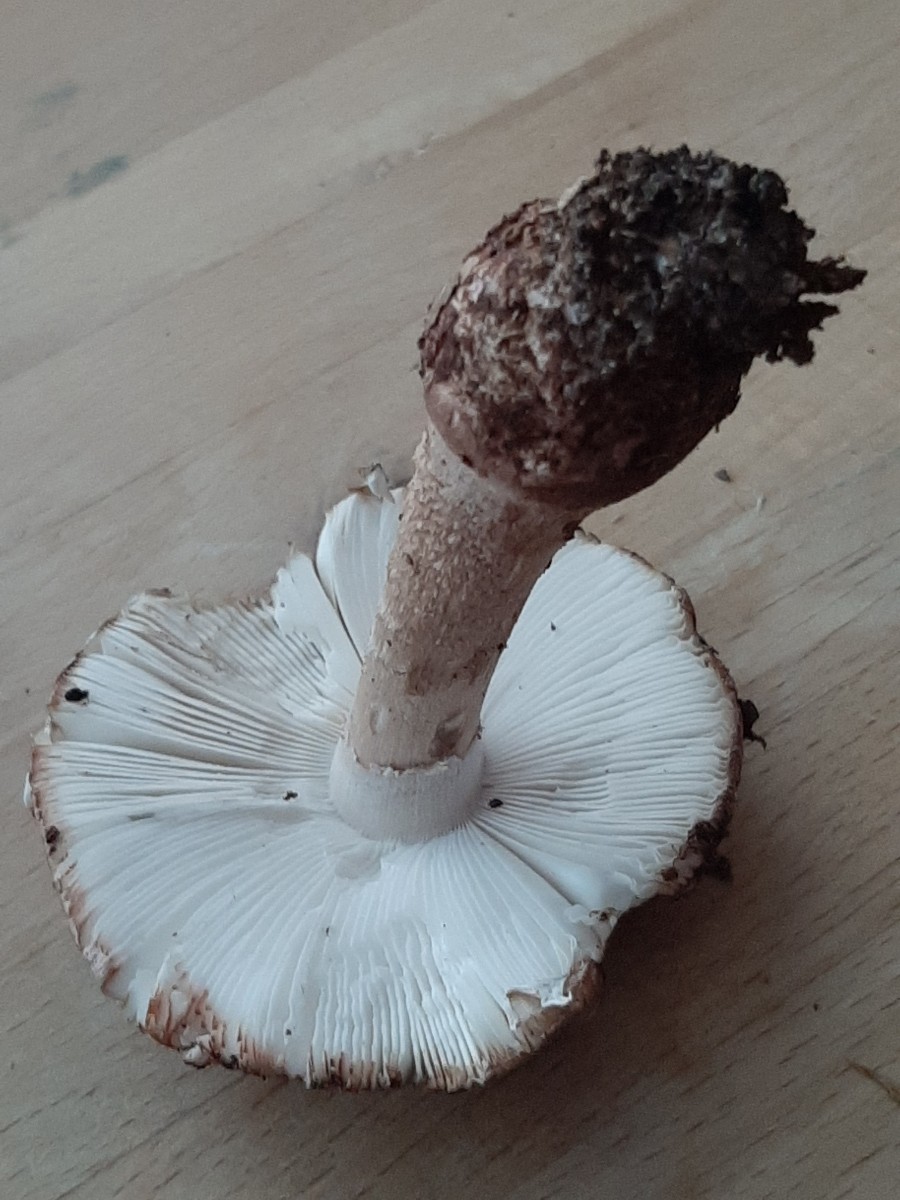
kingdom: Fungi
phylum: Basidiomycota
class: Agaricomycetes
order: Agaricales
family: Amanitaceae
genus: Amanita
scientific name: Amanita rubescens
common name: rødmende fluesvamp
